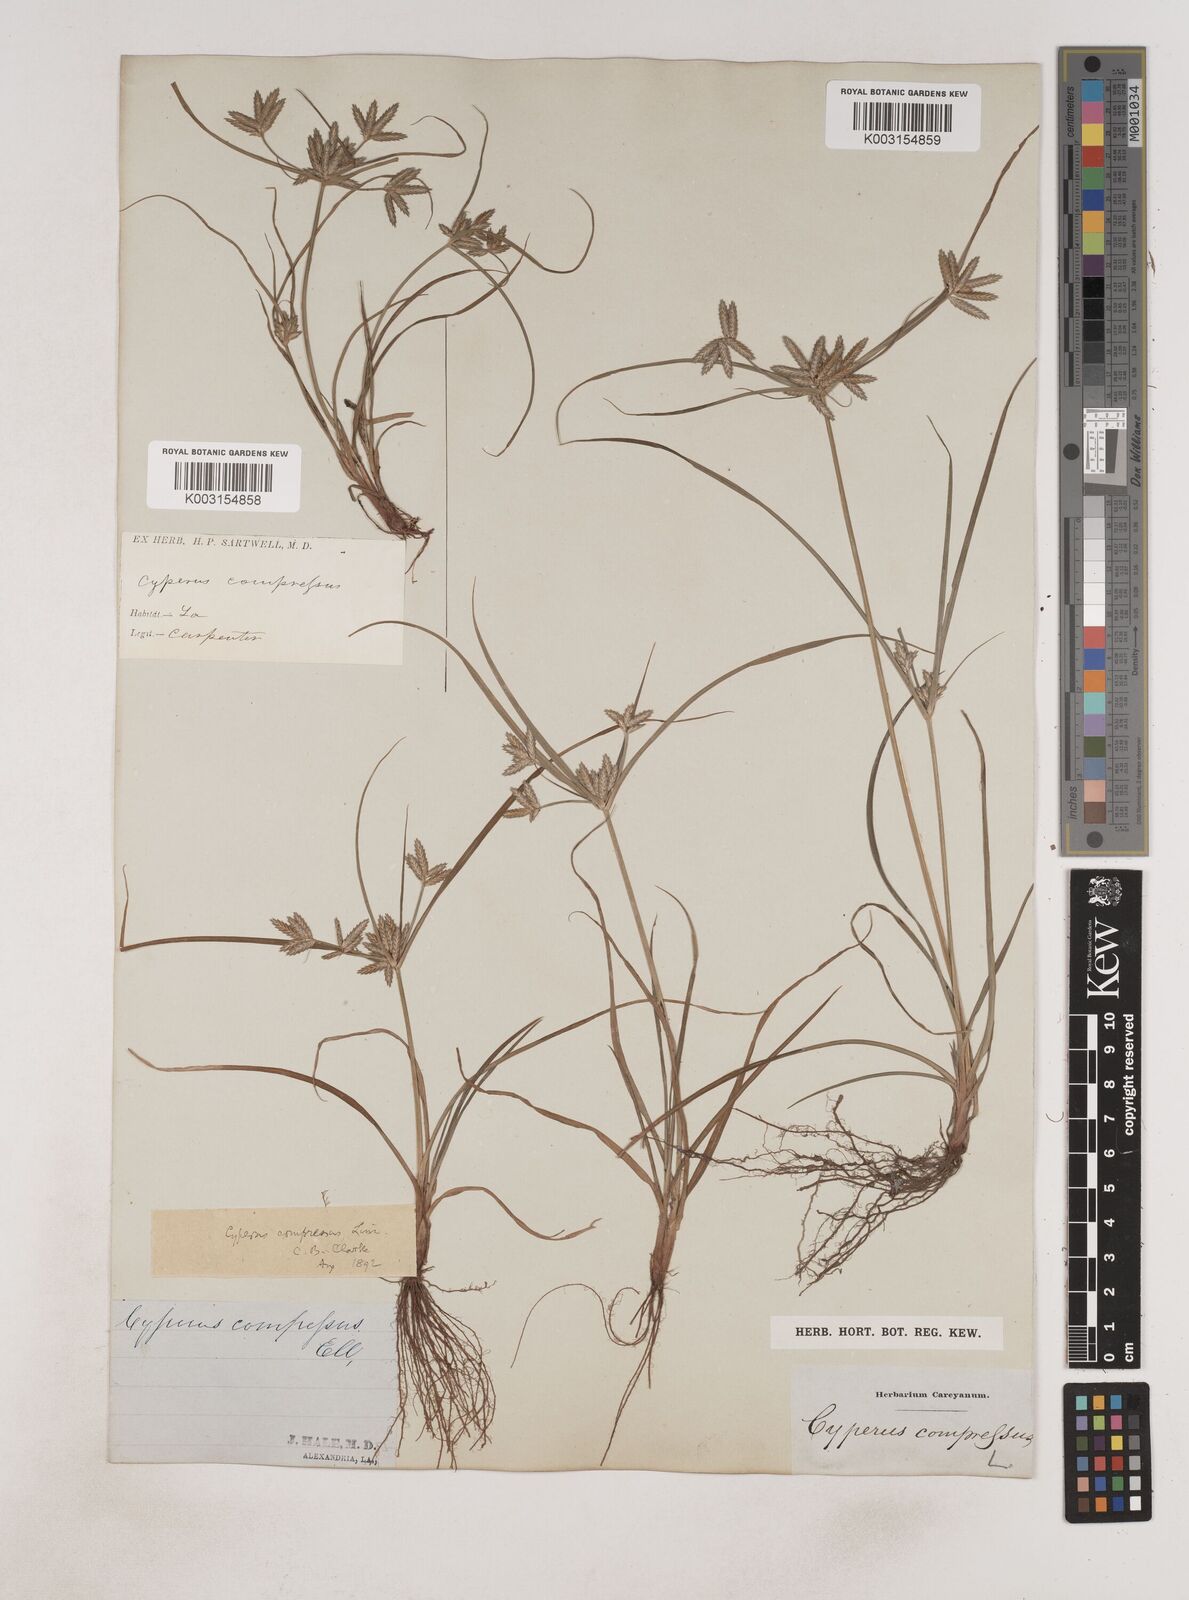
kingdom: Plantae
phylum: Tracheophyta
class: Liliopsida
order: Poales
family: Cyperaceae
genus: Cyperus
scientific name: Cyperus compressus
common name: Poorland flatsedge
